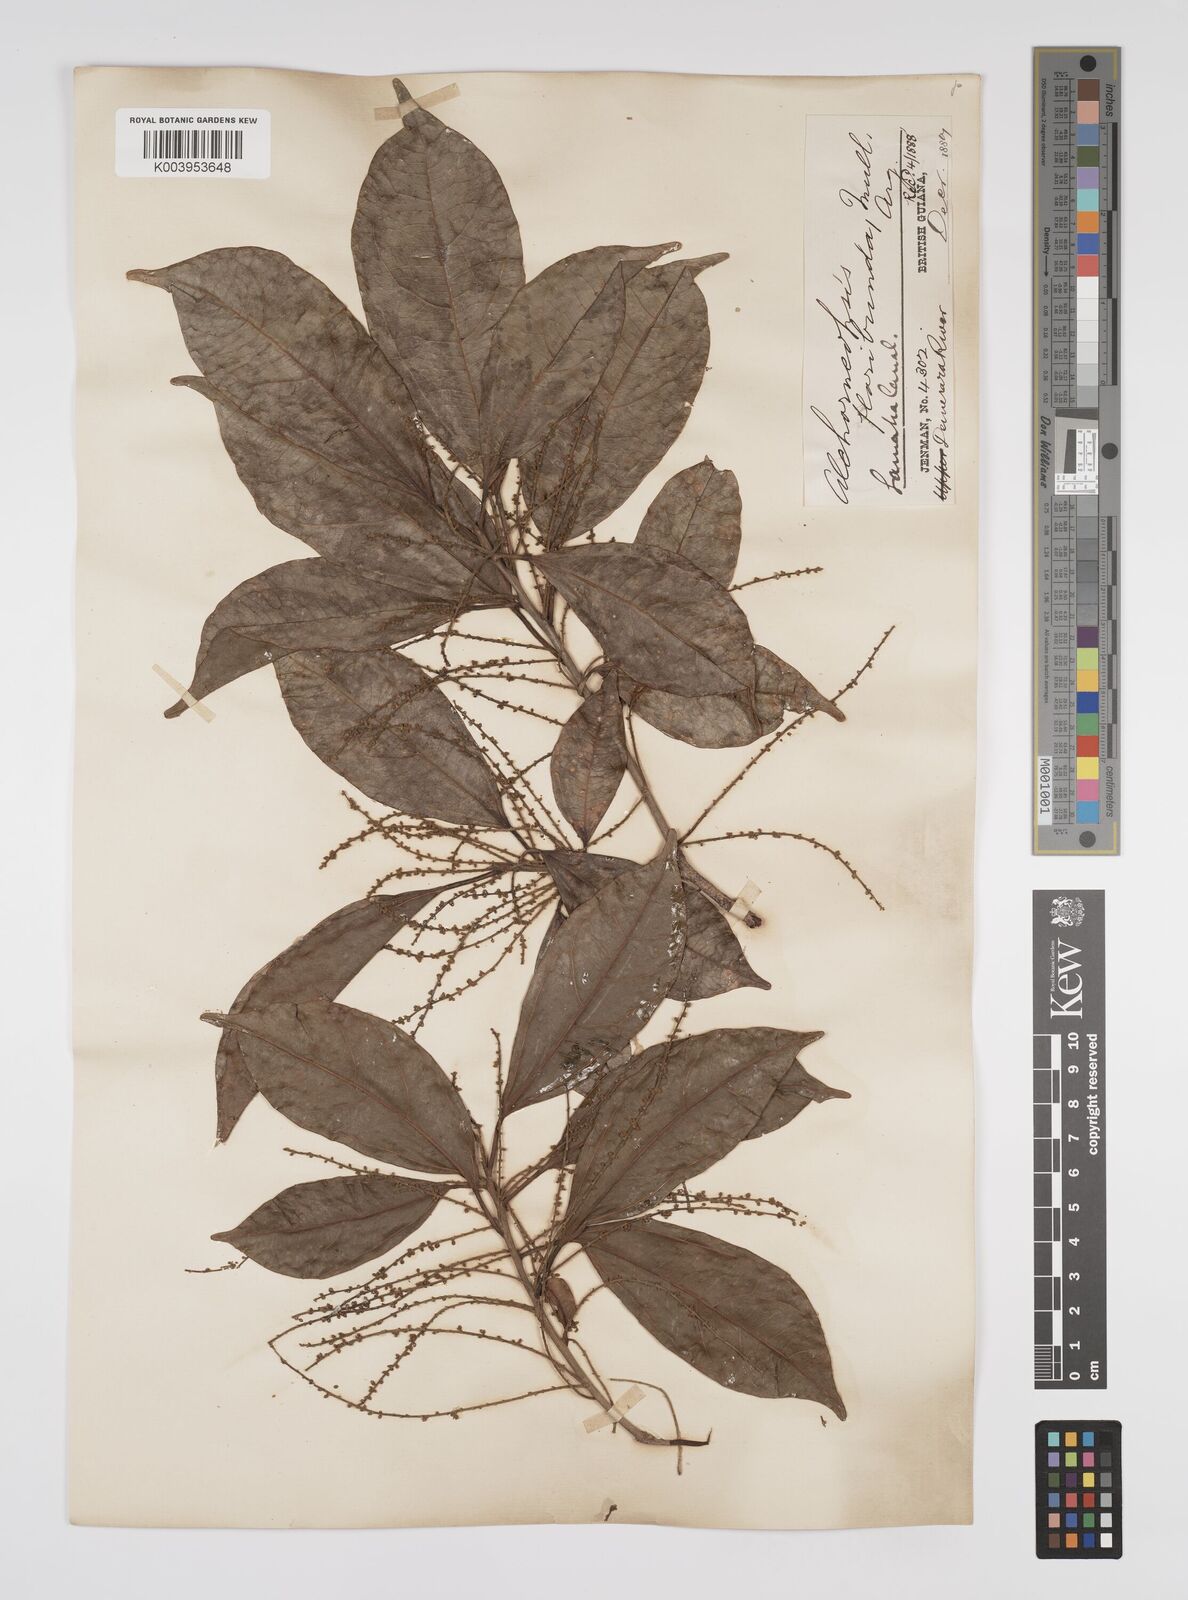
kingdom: Plantae
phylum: Tracheophyta
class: Magnoliopsida
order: Malpighiales
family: Euphorbiaceae
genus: Alchorneopsis
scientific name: Alchorneopsis floribunda
